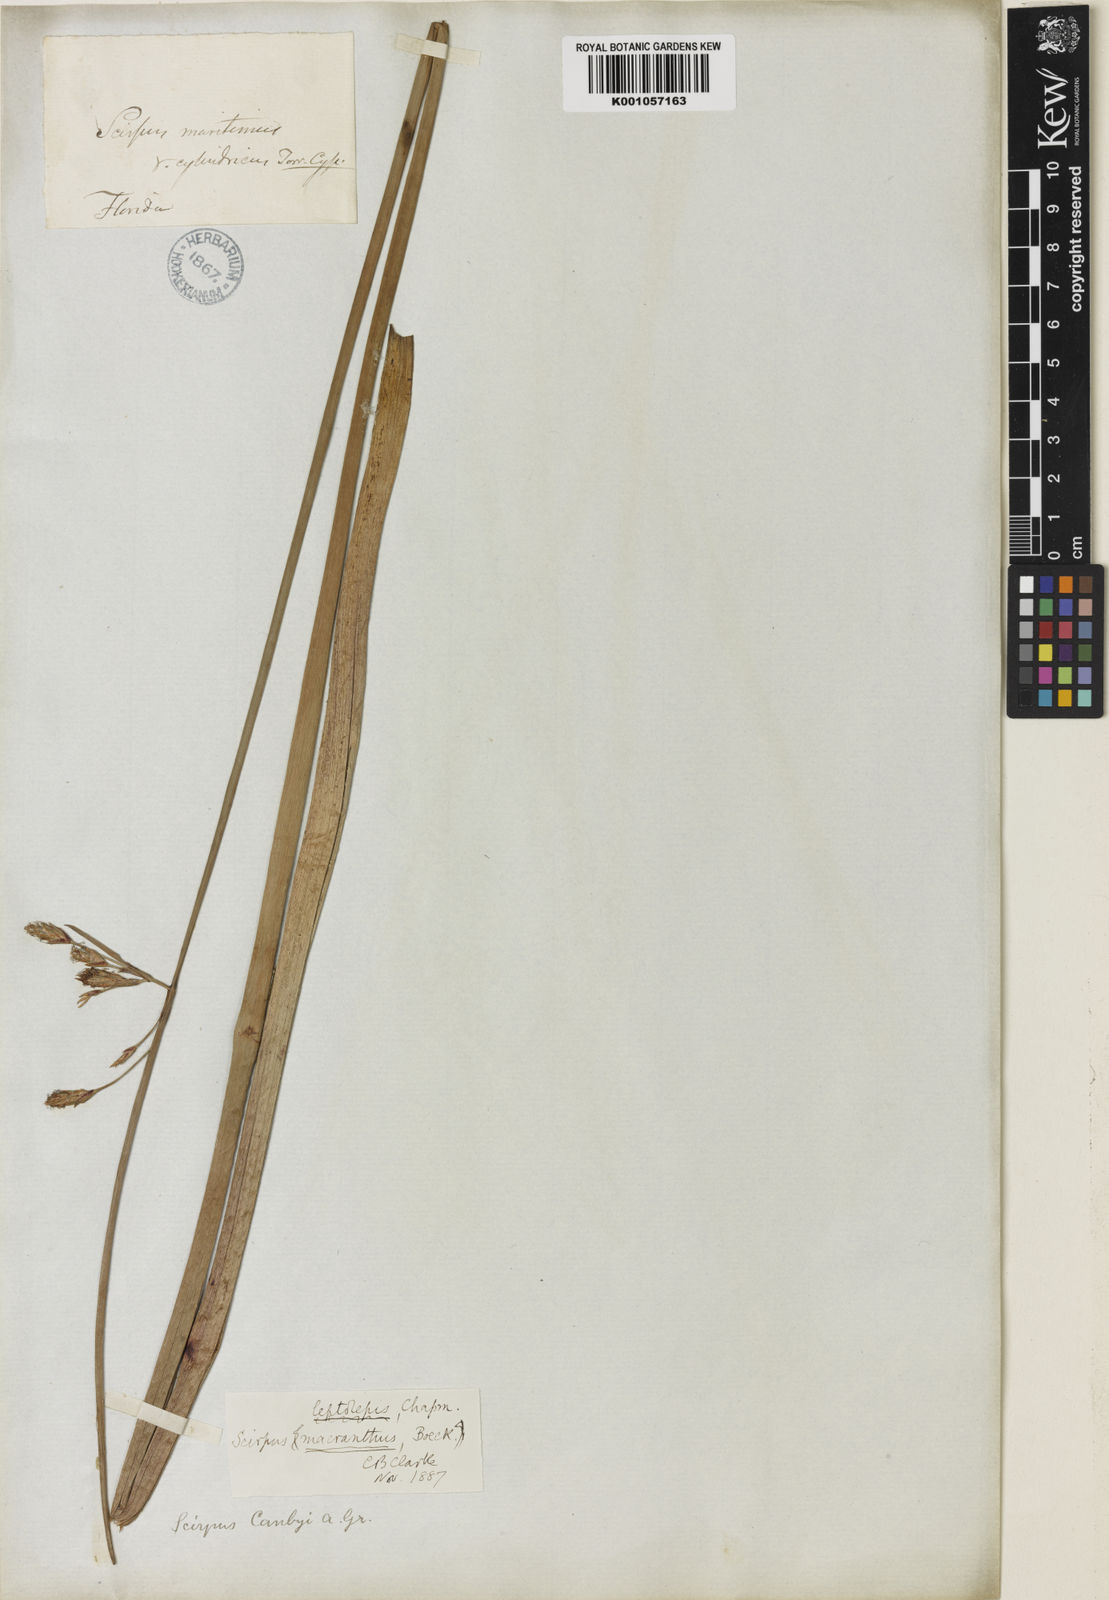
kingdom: Plantae
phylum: Tracheophyta
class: Liliopsida
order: Poales
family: Cyperaceae
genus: Schoenoplectus
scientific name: Schoenoplectus
